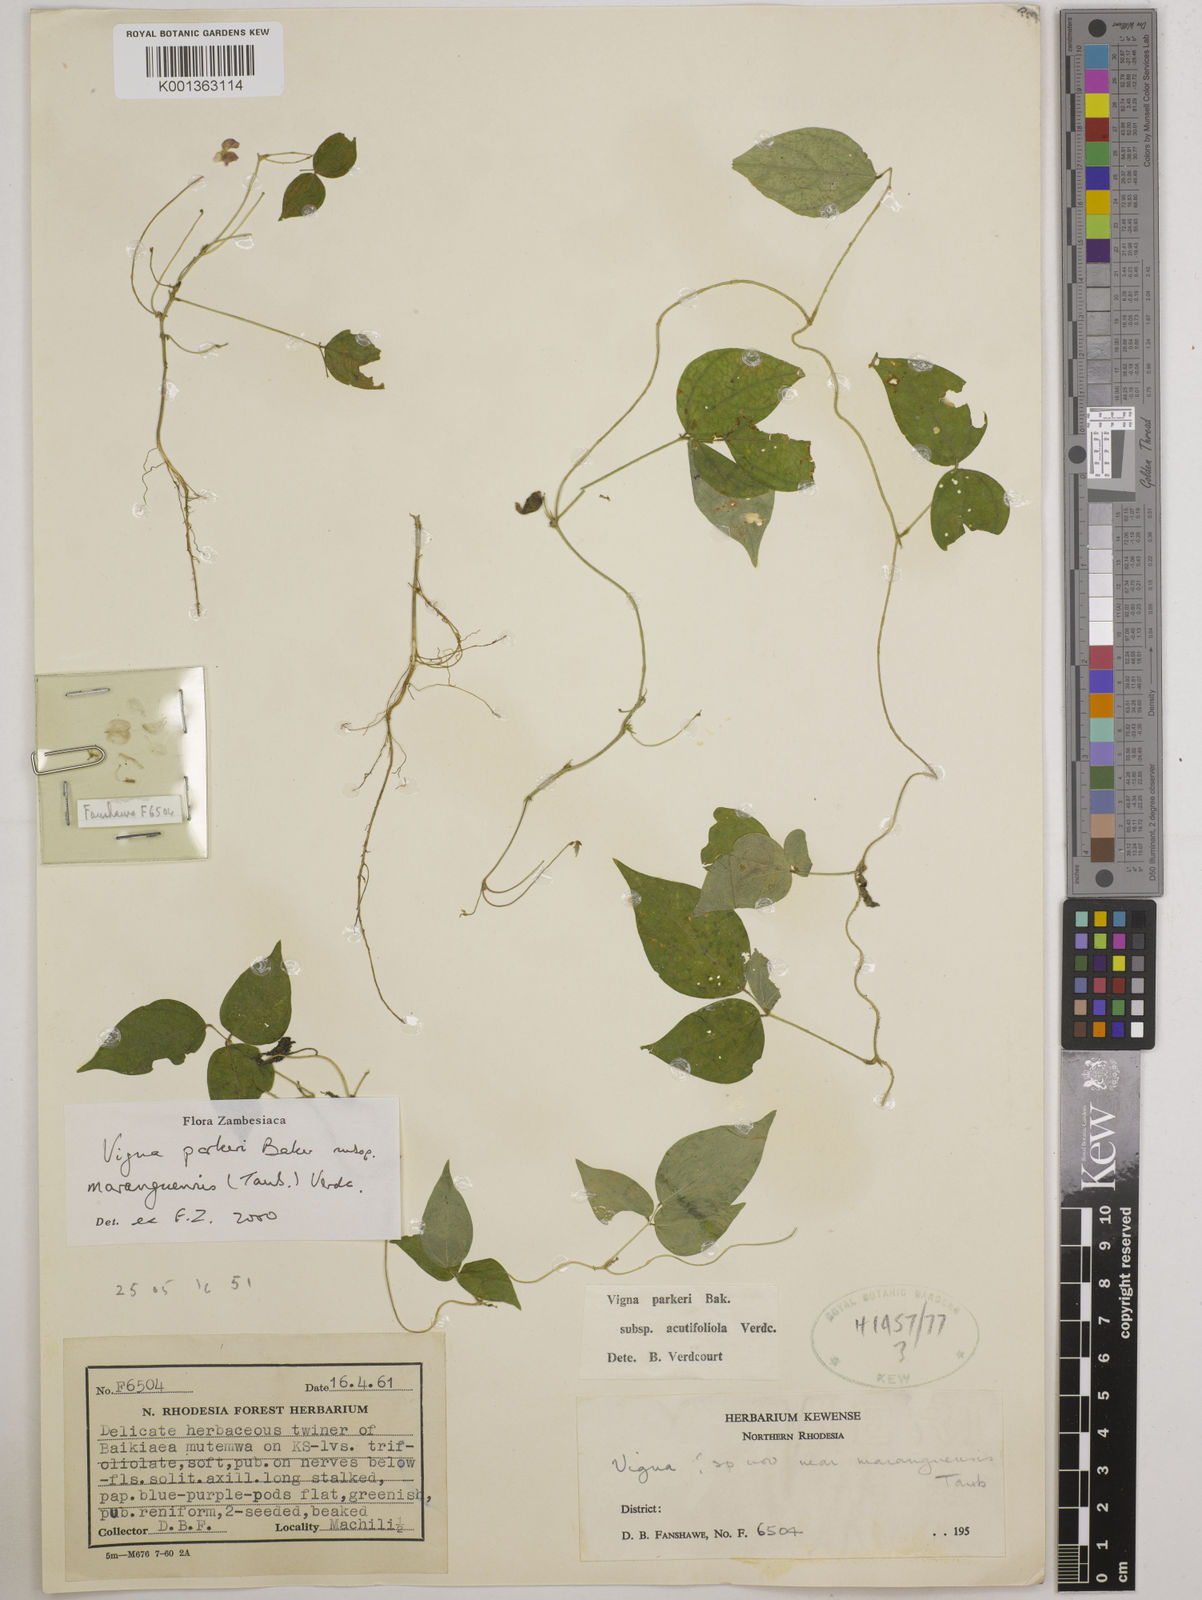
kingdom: Plantae
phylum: Tracheophyta
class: Magnoliopsida
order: Fabales
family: Fabaceae
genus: Vigna
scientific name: Vigna
